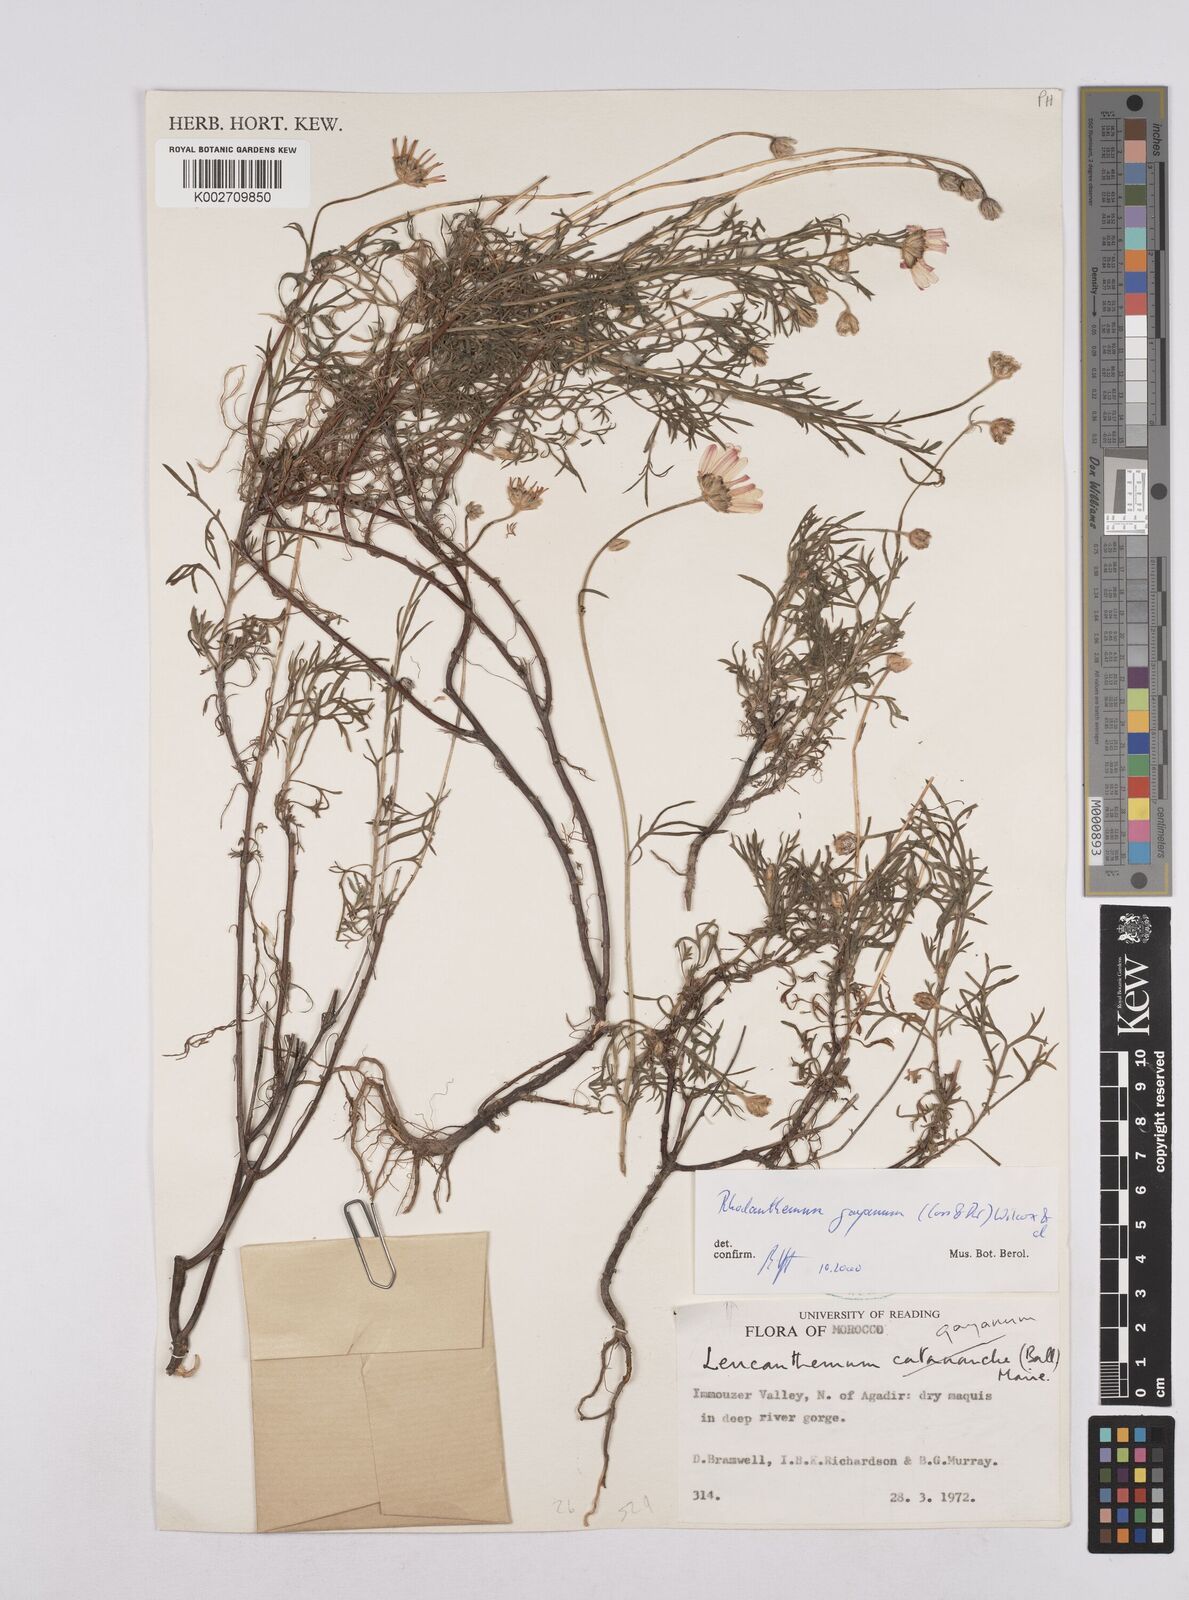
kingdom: Plantae
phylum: Tracheophyta
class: Magnoliopsida
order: Asterales
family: Asteraceae
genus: Rhodanthemum
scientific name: Rhodanthemum gayanum
